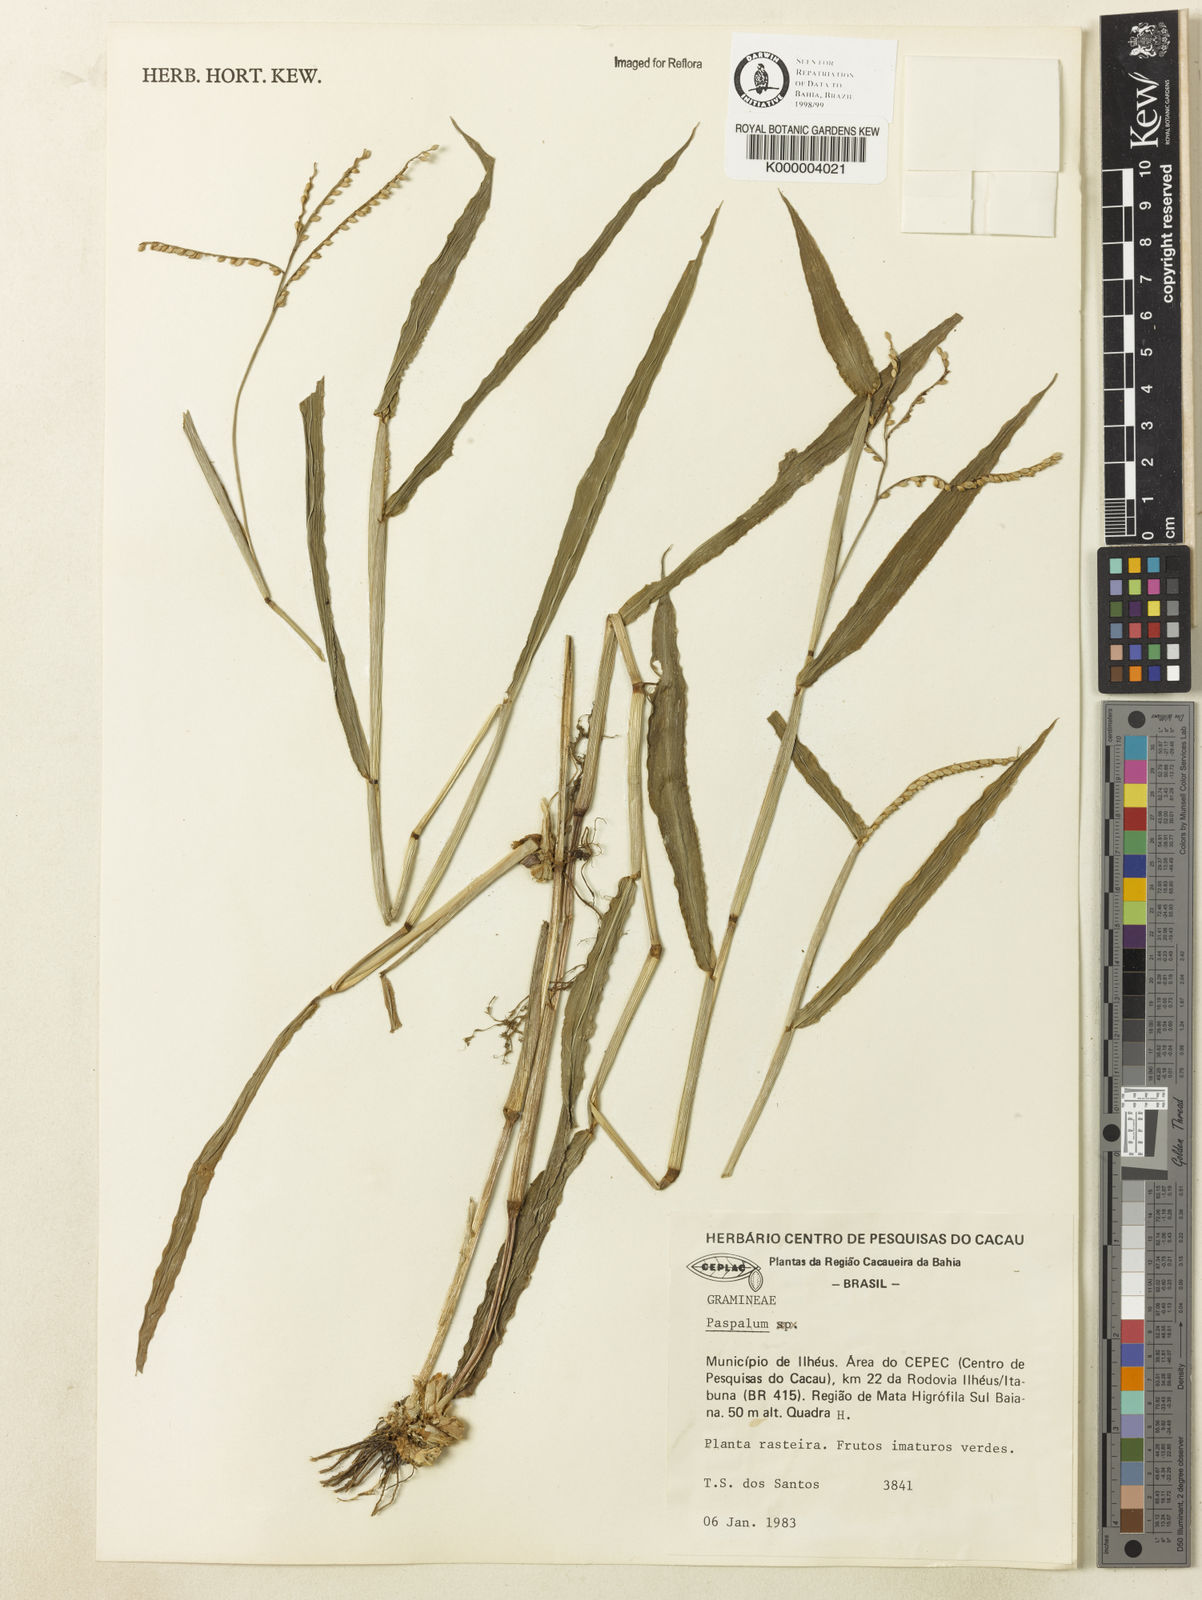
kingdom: Plantae
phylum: Tracheophyta
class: Liliopsida
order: Poales
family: Poaceae
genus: Paspalum
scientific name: Paspalum
